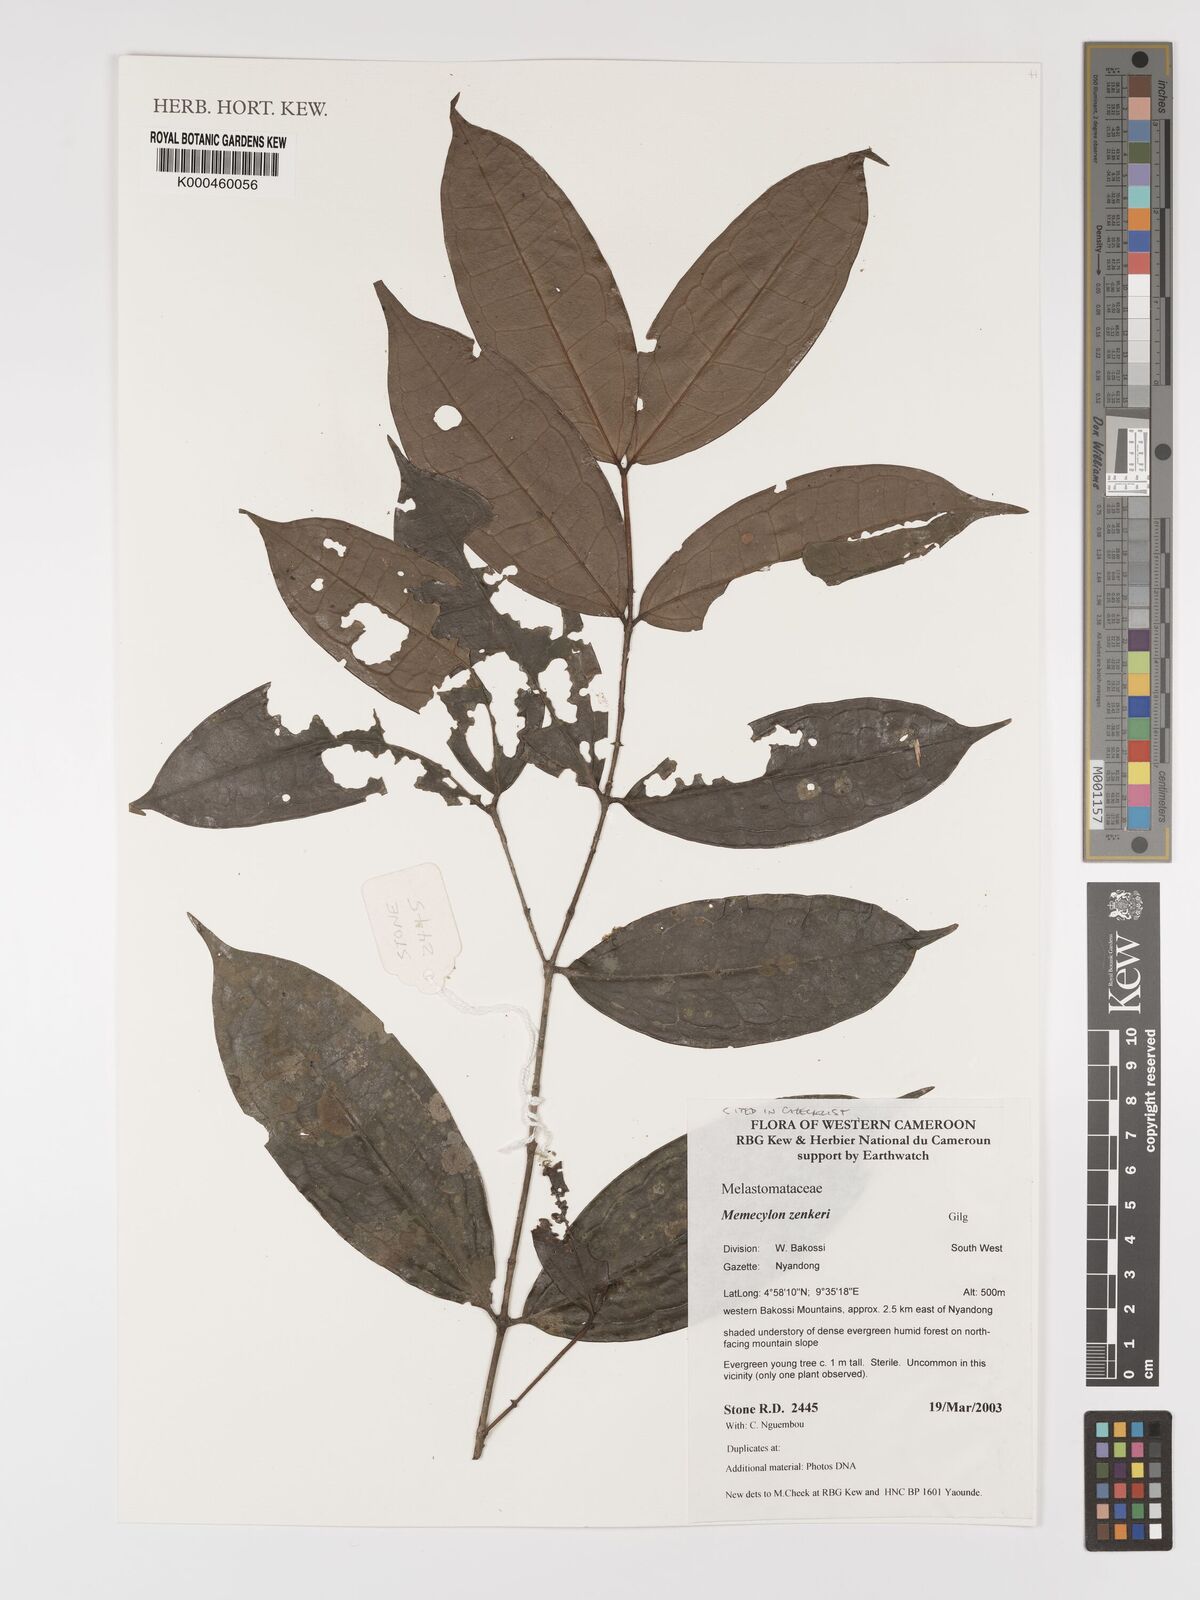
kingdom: Plantae
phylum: Tracheophyta
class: Magnoliopsida
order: Myrtales
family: Melastomataceae
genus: Memecylon
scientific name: Memecylon zenkeri
